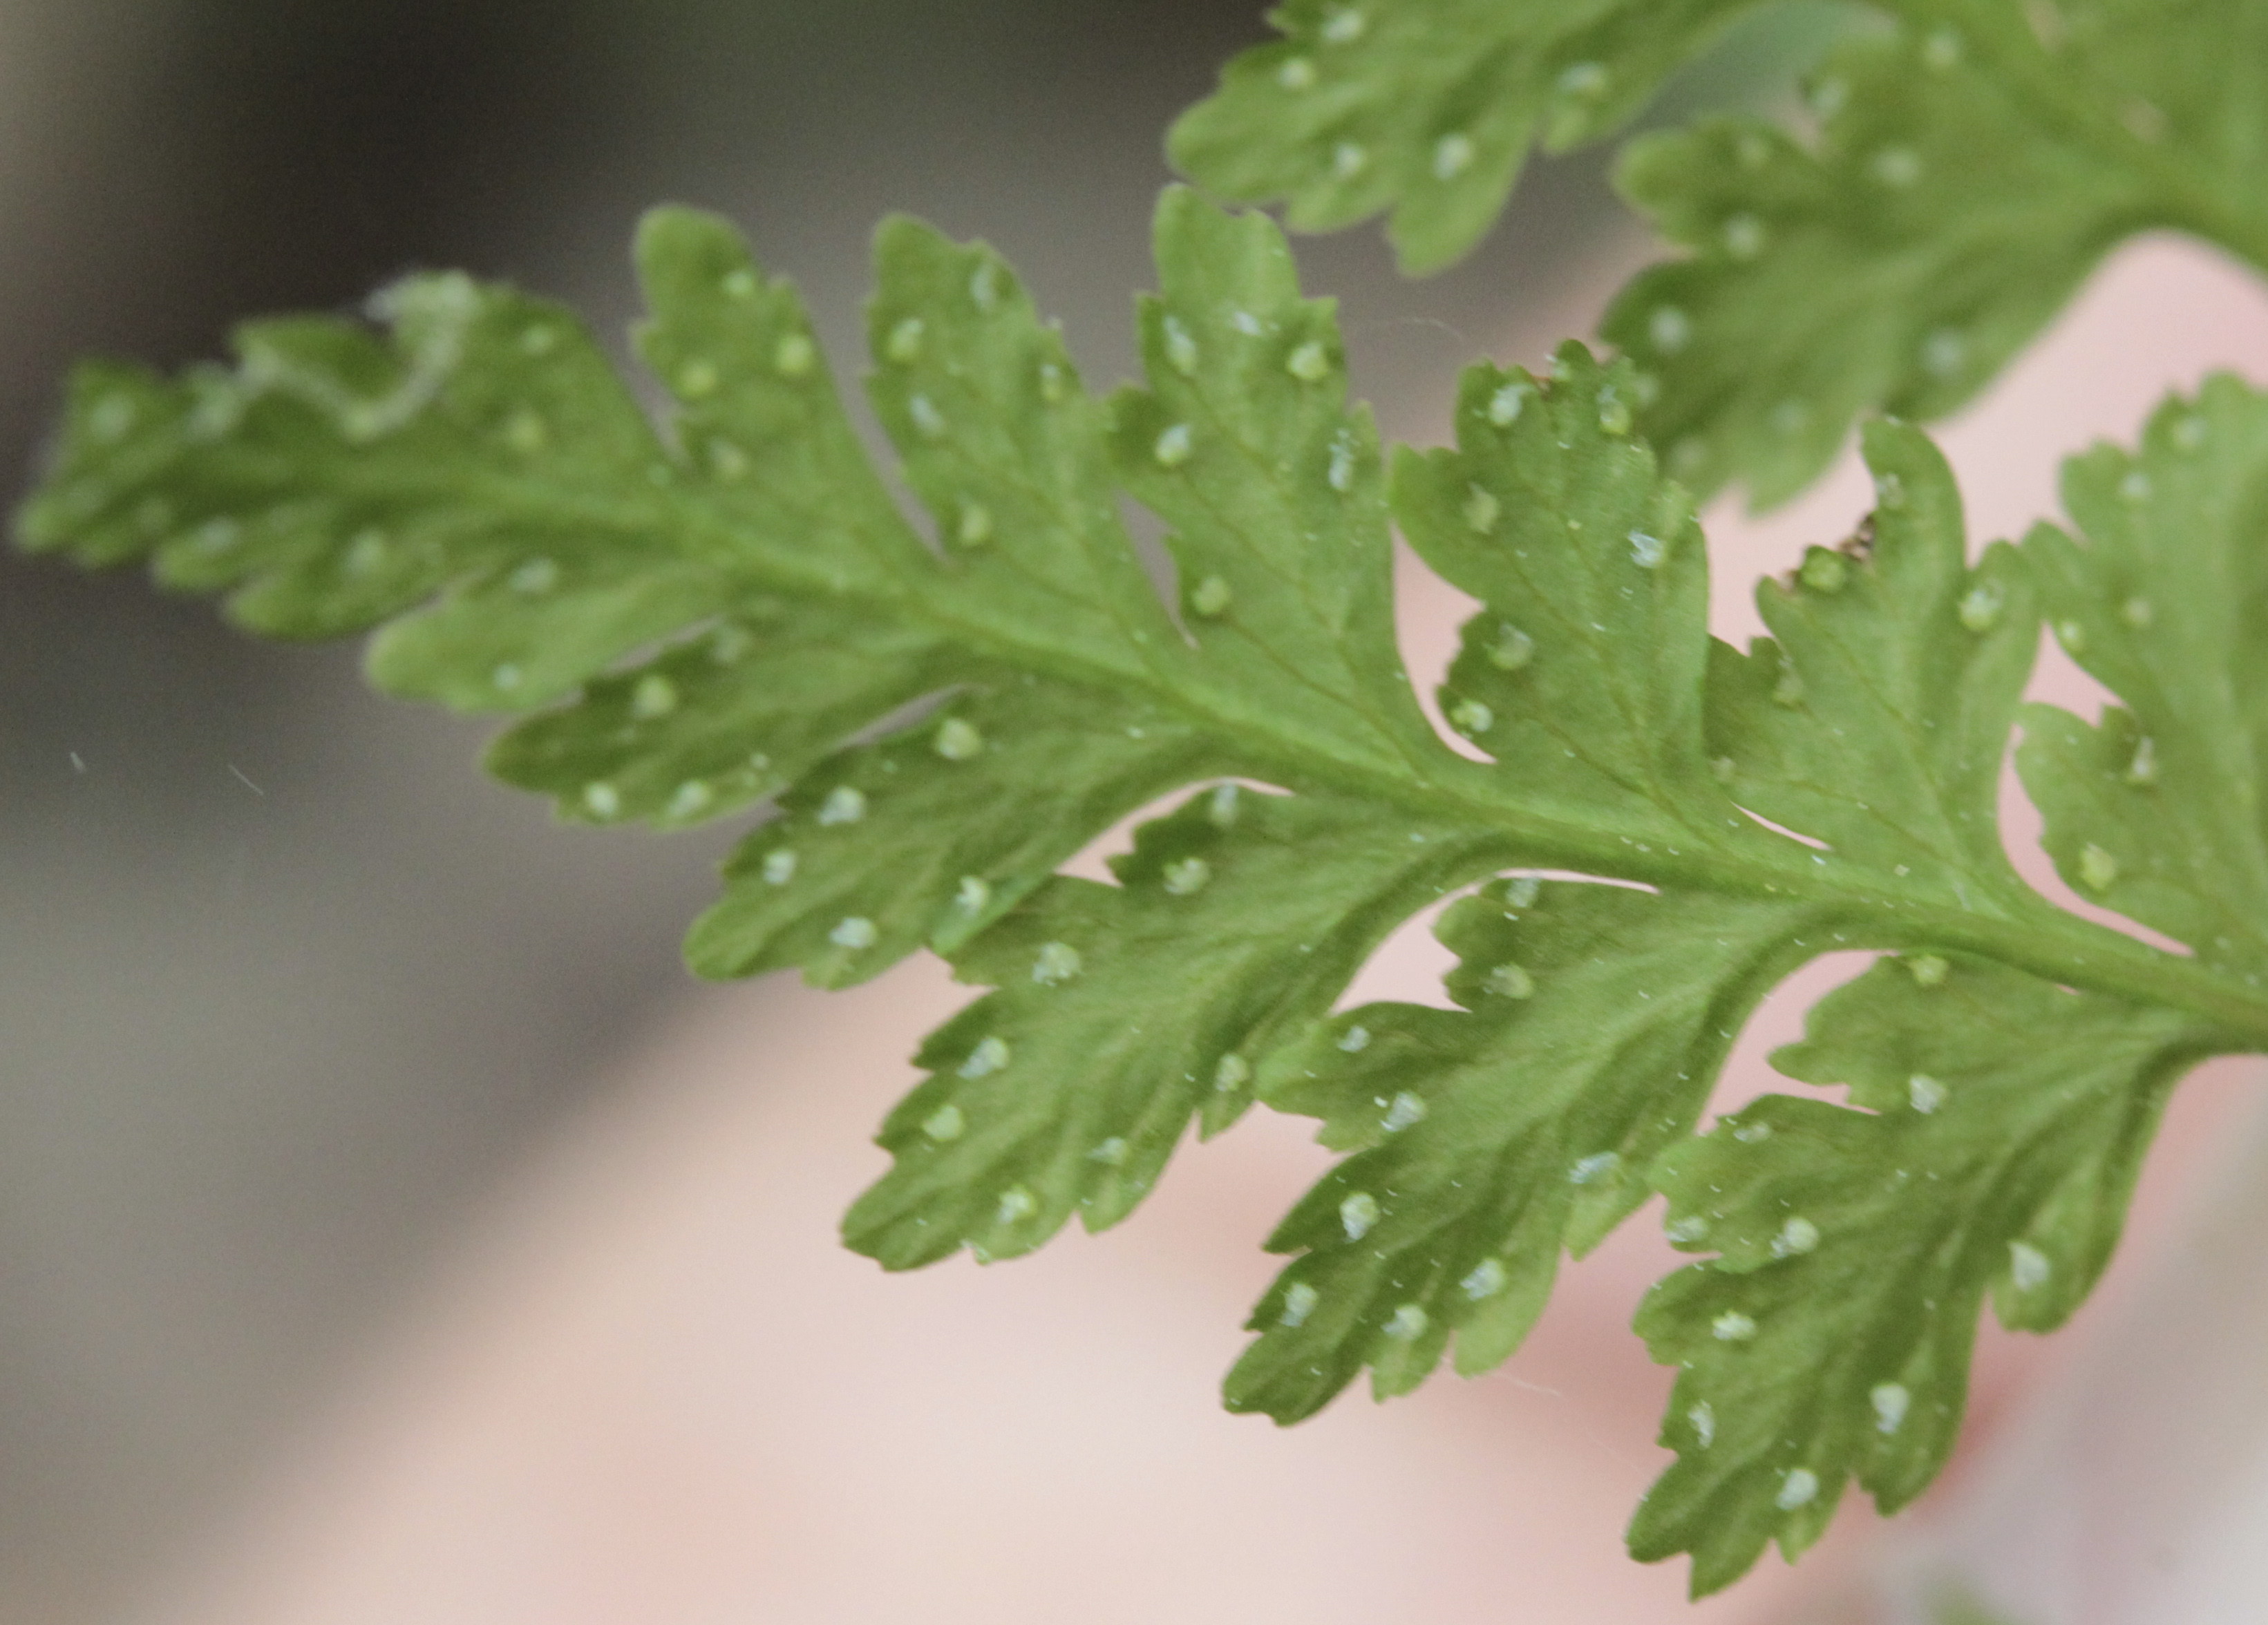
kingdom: Plantae
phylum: Tracheophyta
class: Polypodiopsida
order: Polypodiales
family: Cystopteridaceae
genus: Cystopteris
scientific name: Cystopteris fragilis
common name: Brittle bladder fern
